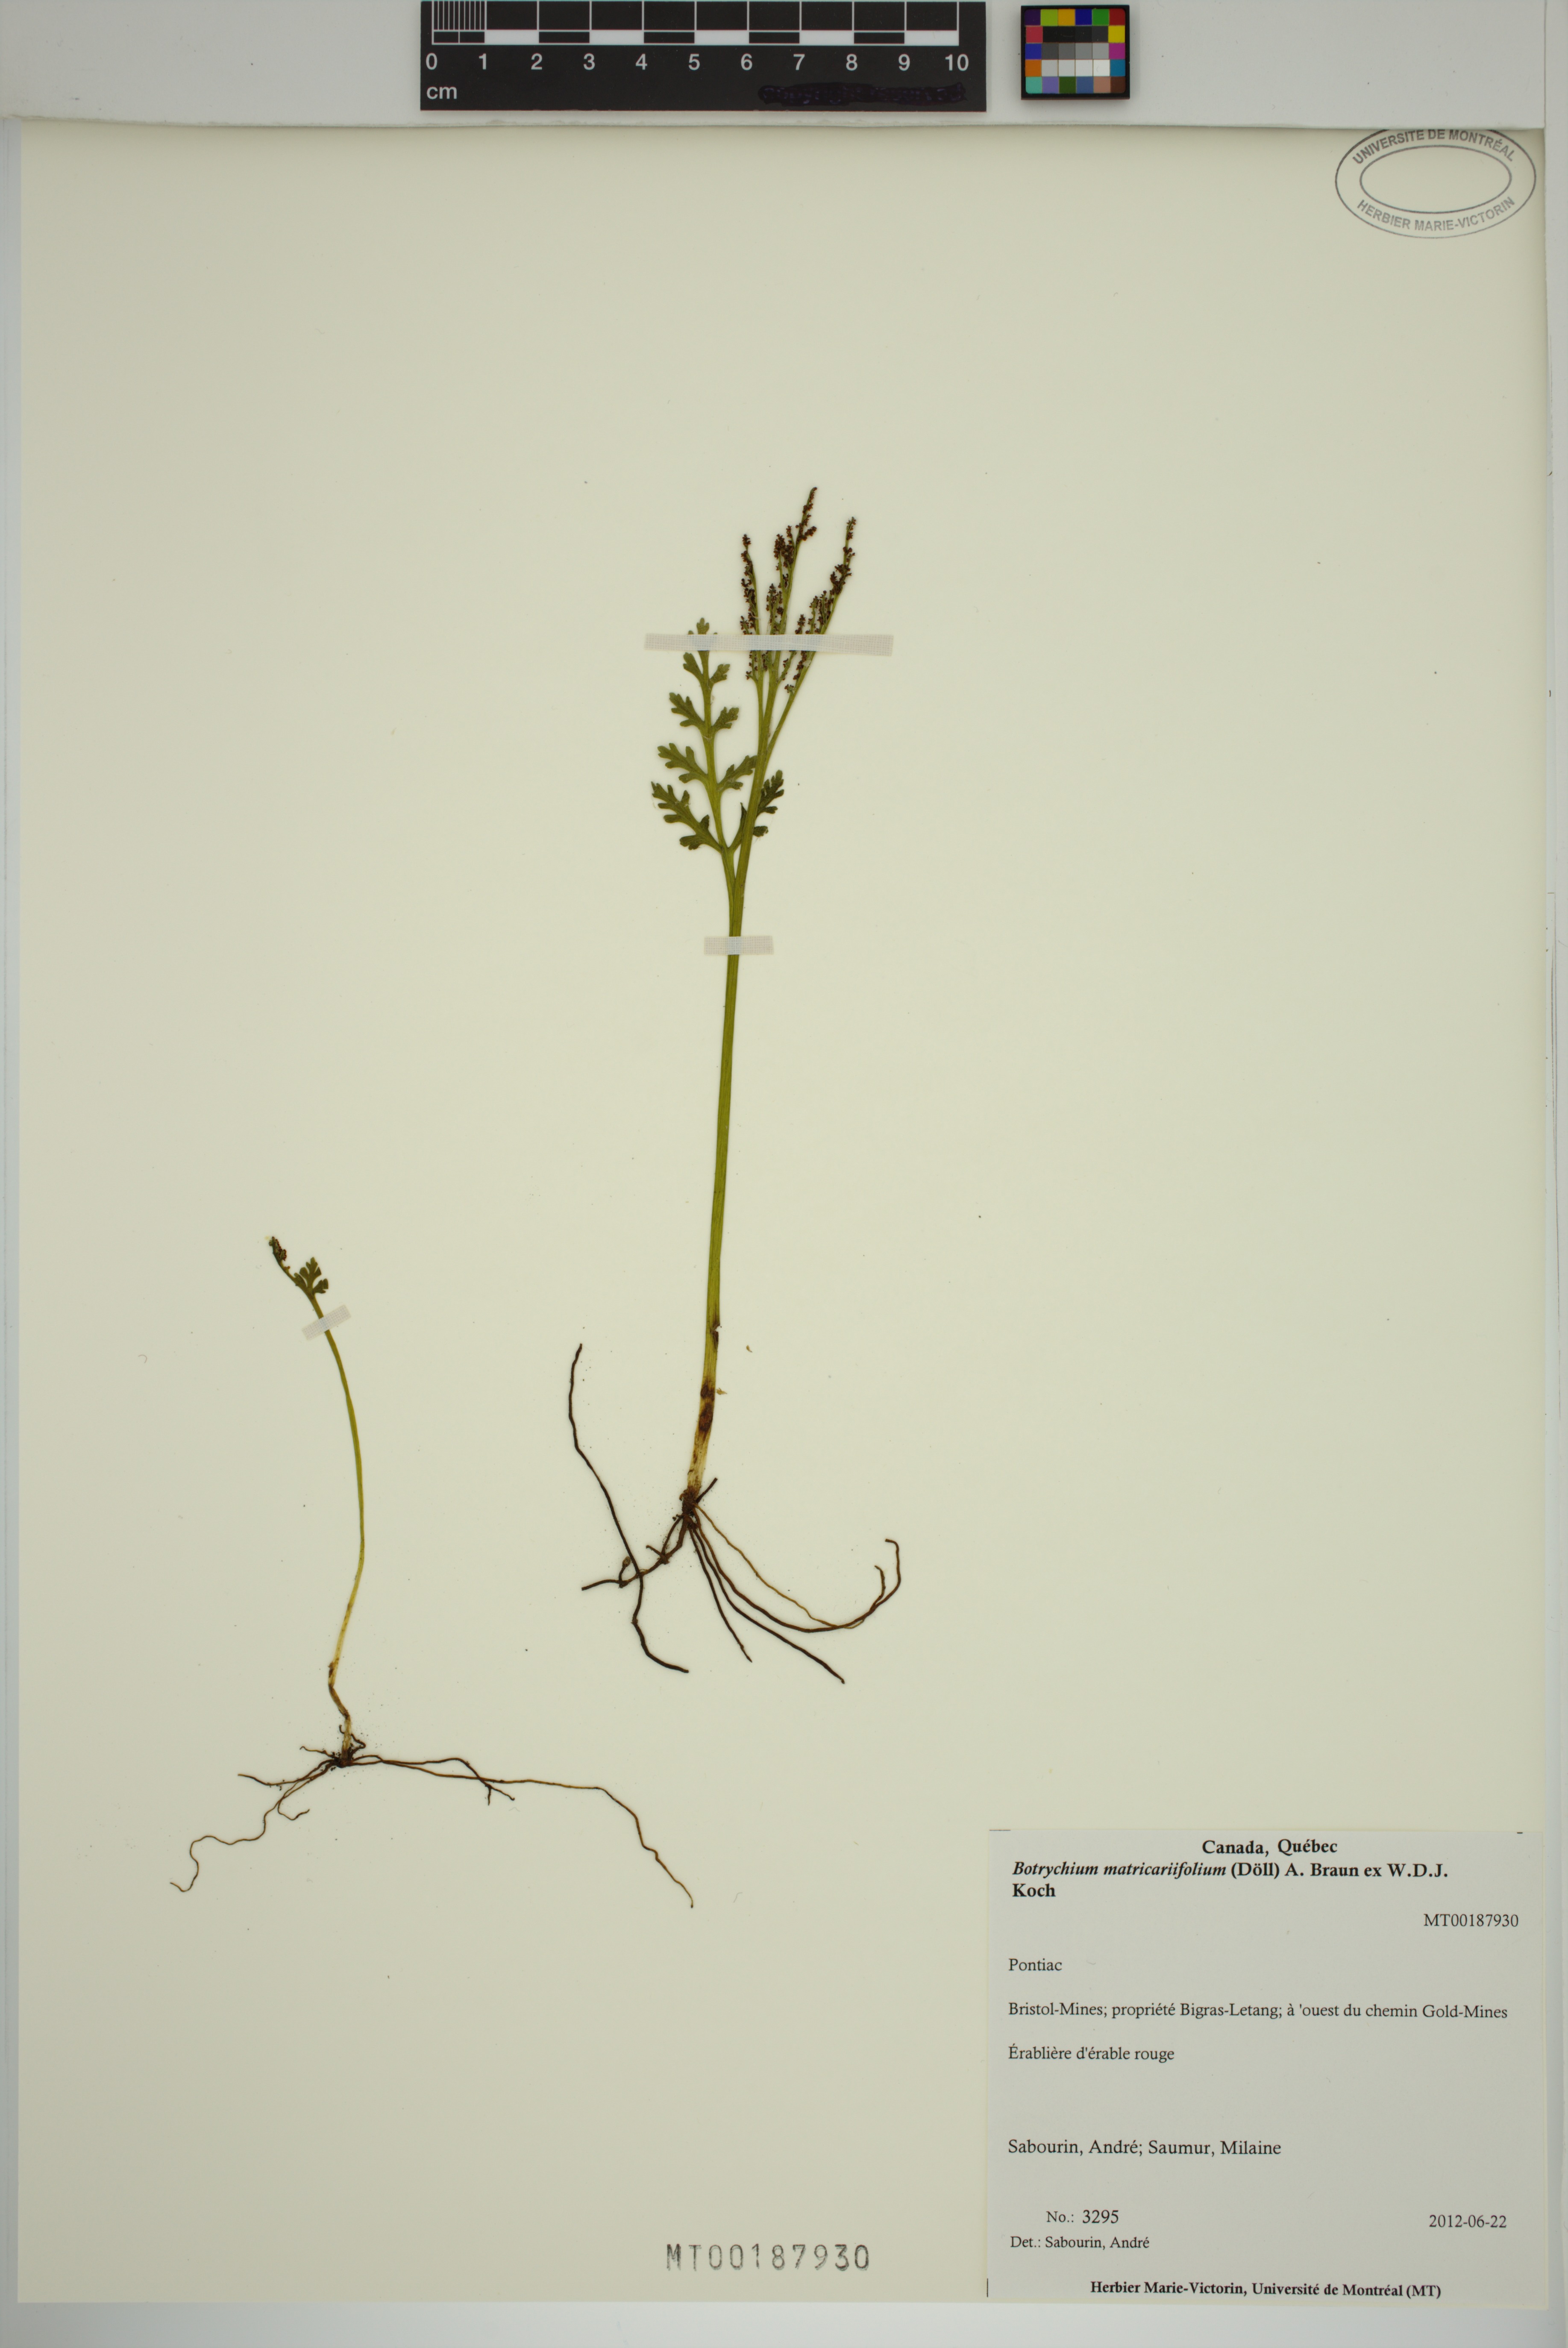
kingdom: Plantae
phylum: Tracheophyta
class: Polypodiopsida
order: Ophioglossales
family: Ophioglossaceae
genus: Botrychium
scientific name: Botrychium matricariifolium
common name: Branched moonwort
